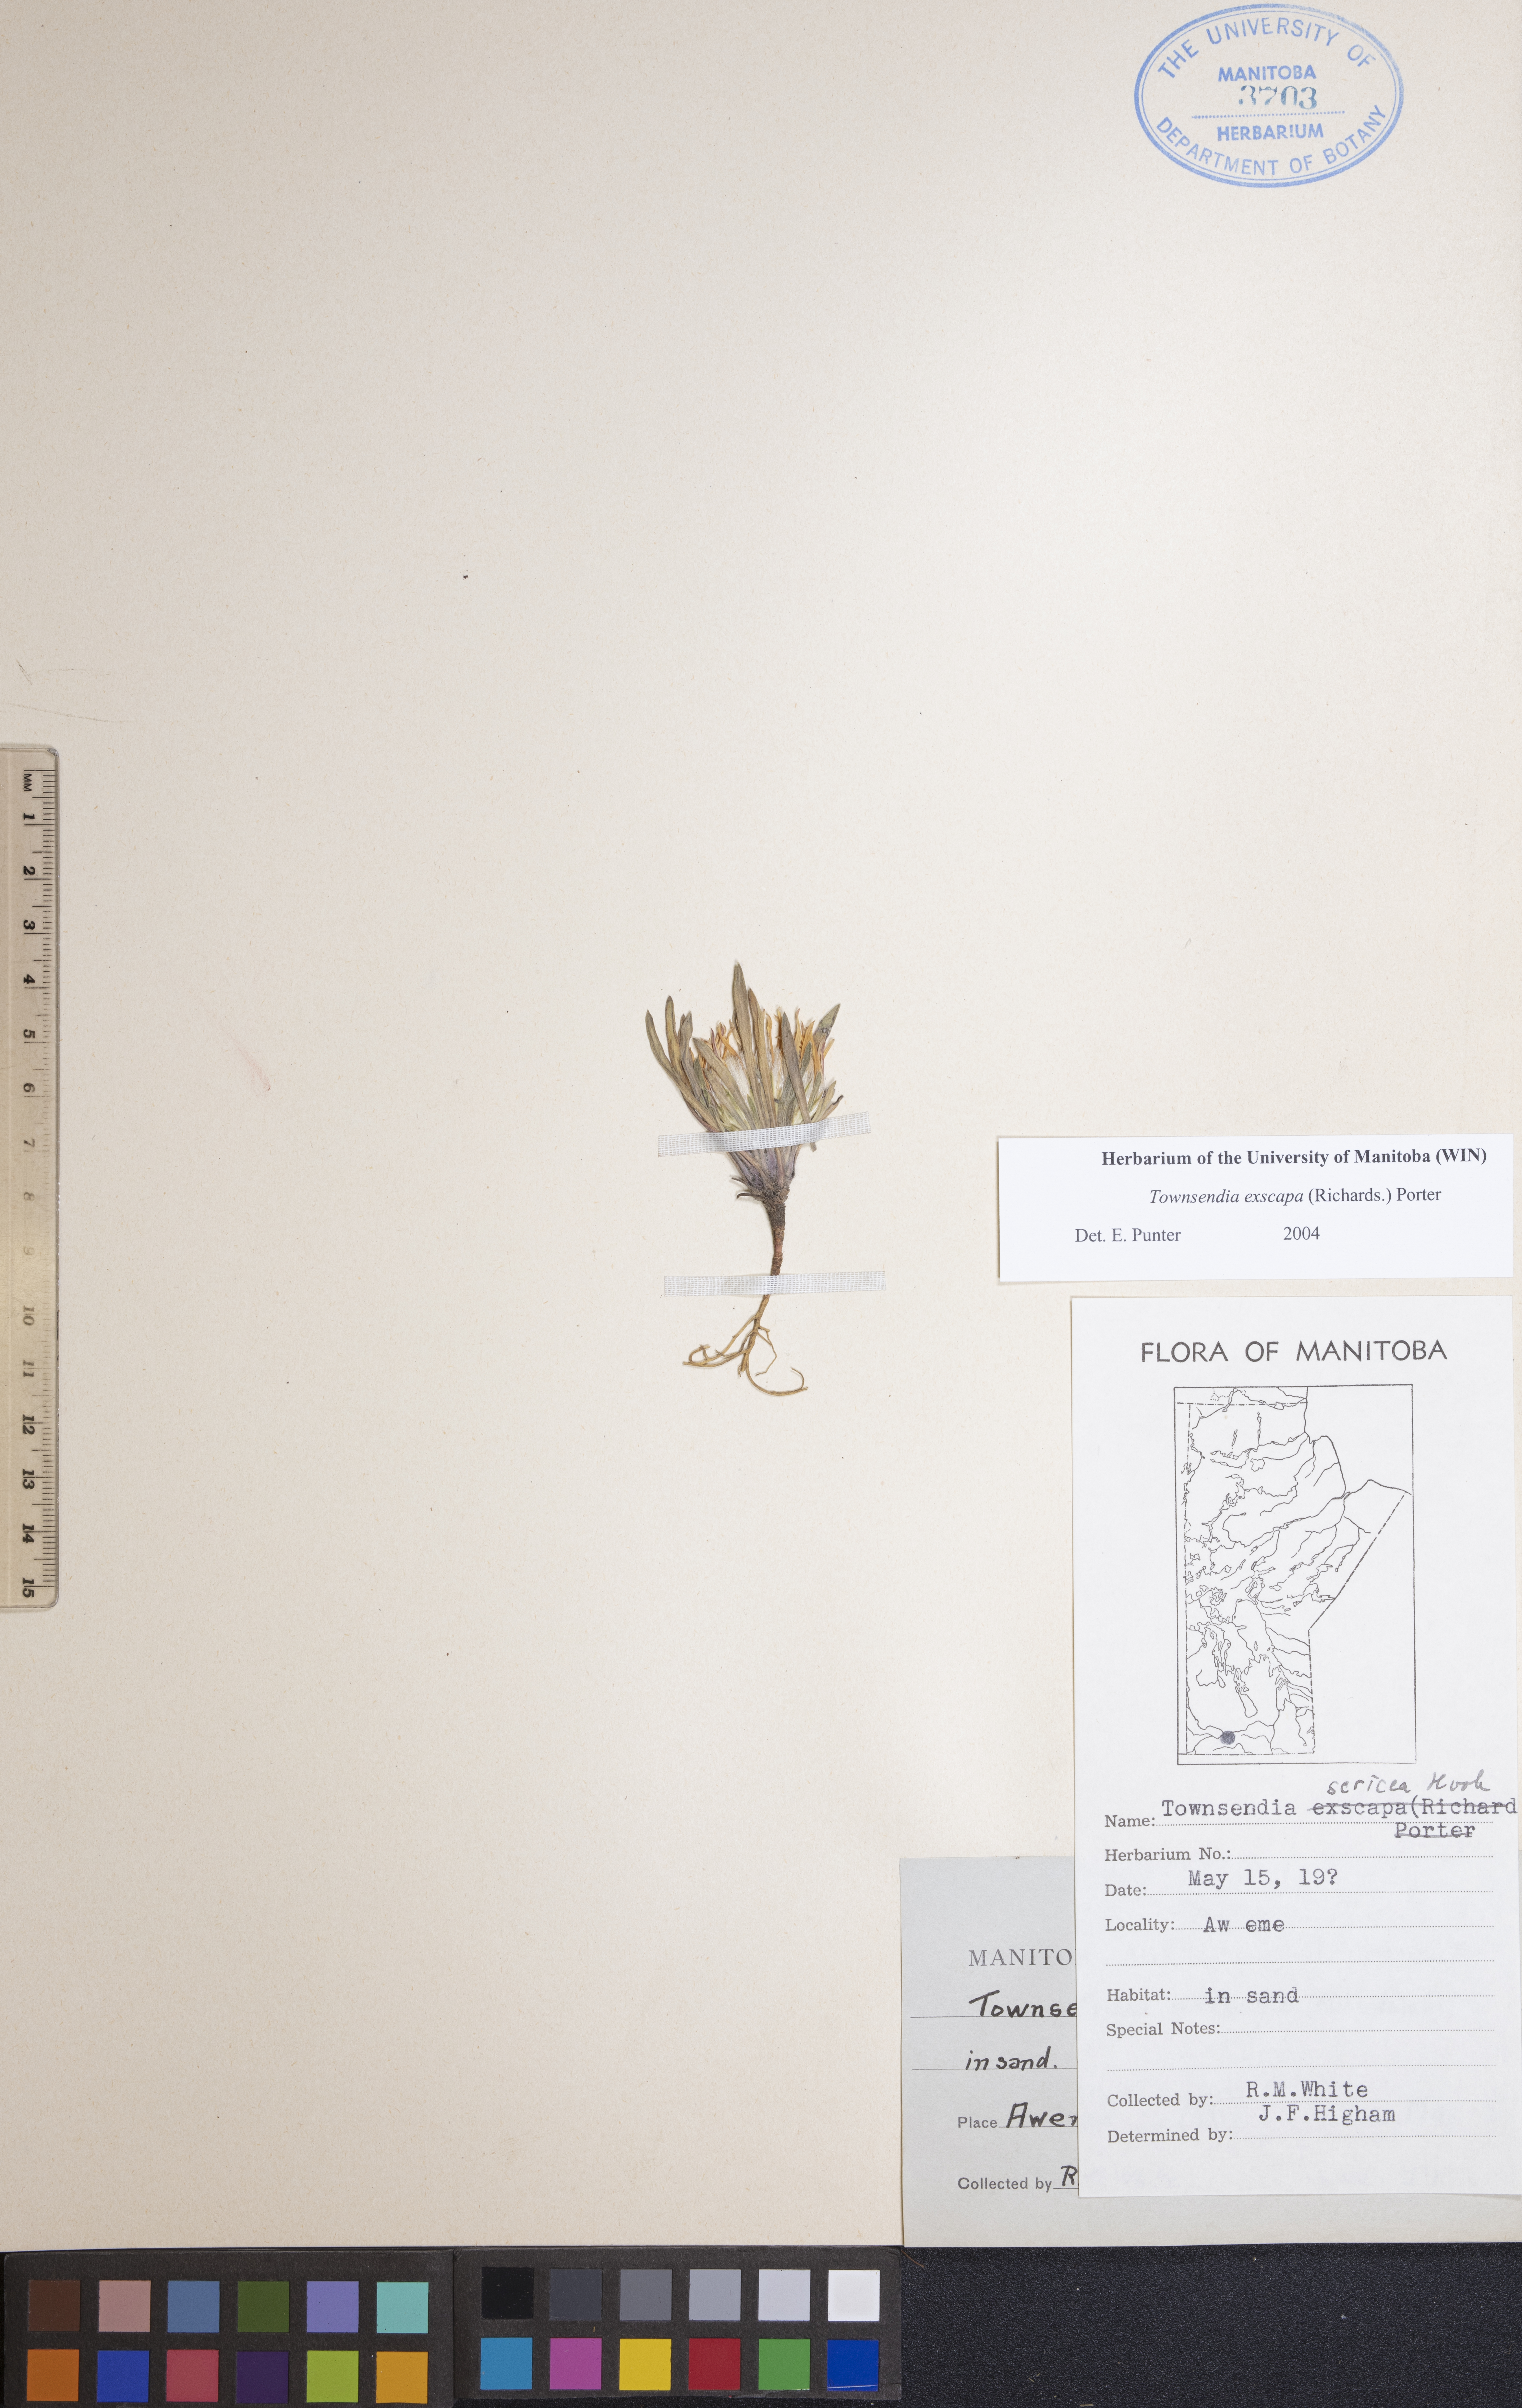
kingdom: Plantae
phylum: Tracheophyta
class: Magnoliopsida
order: Asterales
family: Asteraceae
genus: Townsendia
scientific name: Townsendia exscapa
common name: Dwarf townsendia
